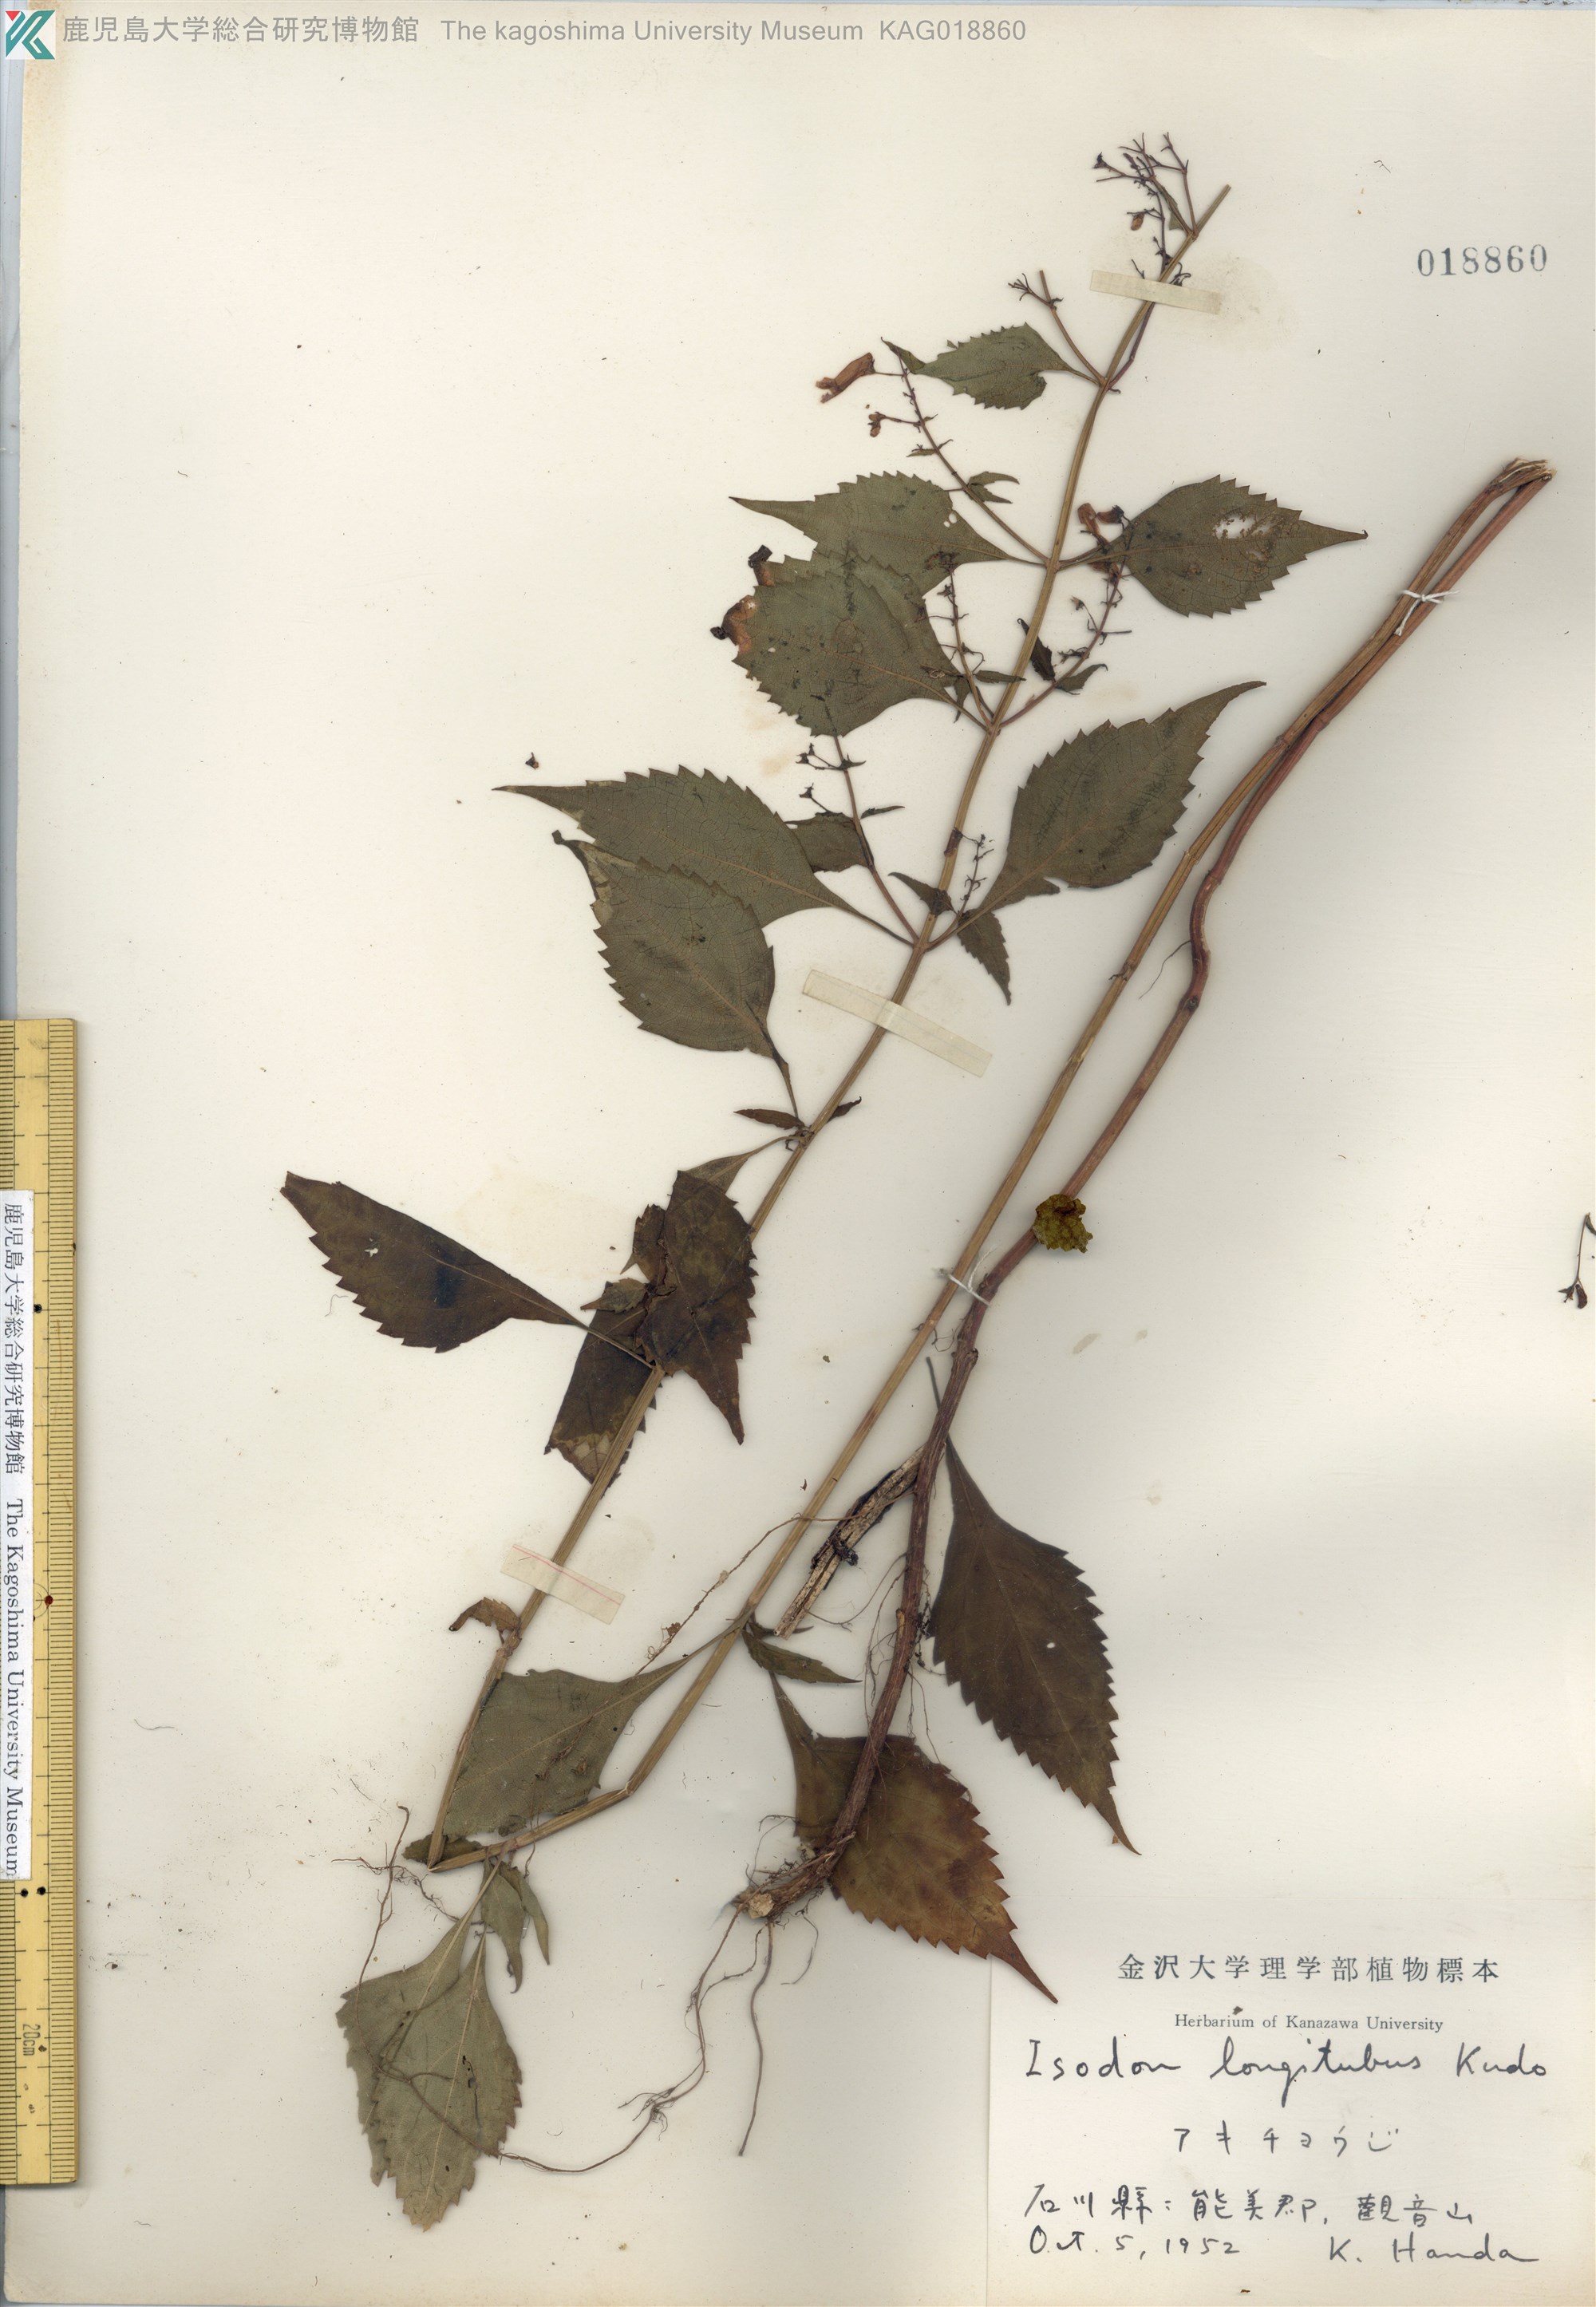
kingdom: Plantae
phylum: Tracheophyta
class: Magnoliopsida
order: Lamiales
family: Lamiaceae
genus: Isodon
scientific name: Isodon longitubus
